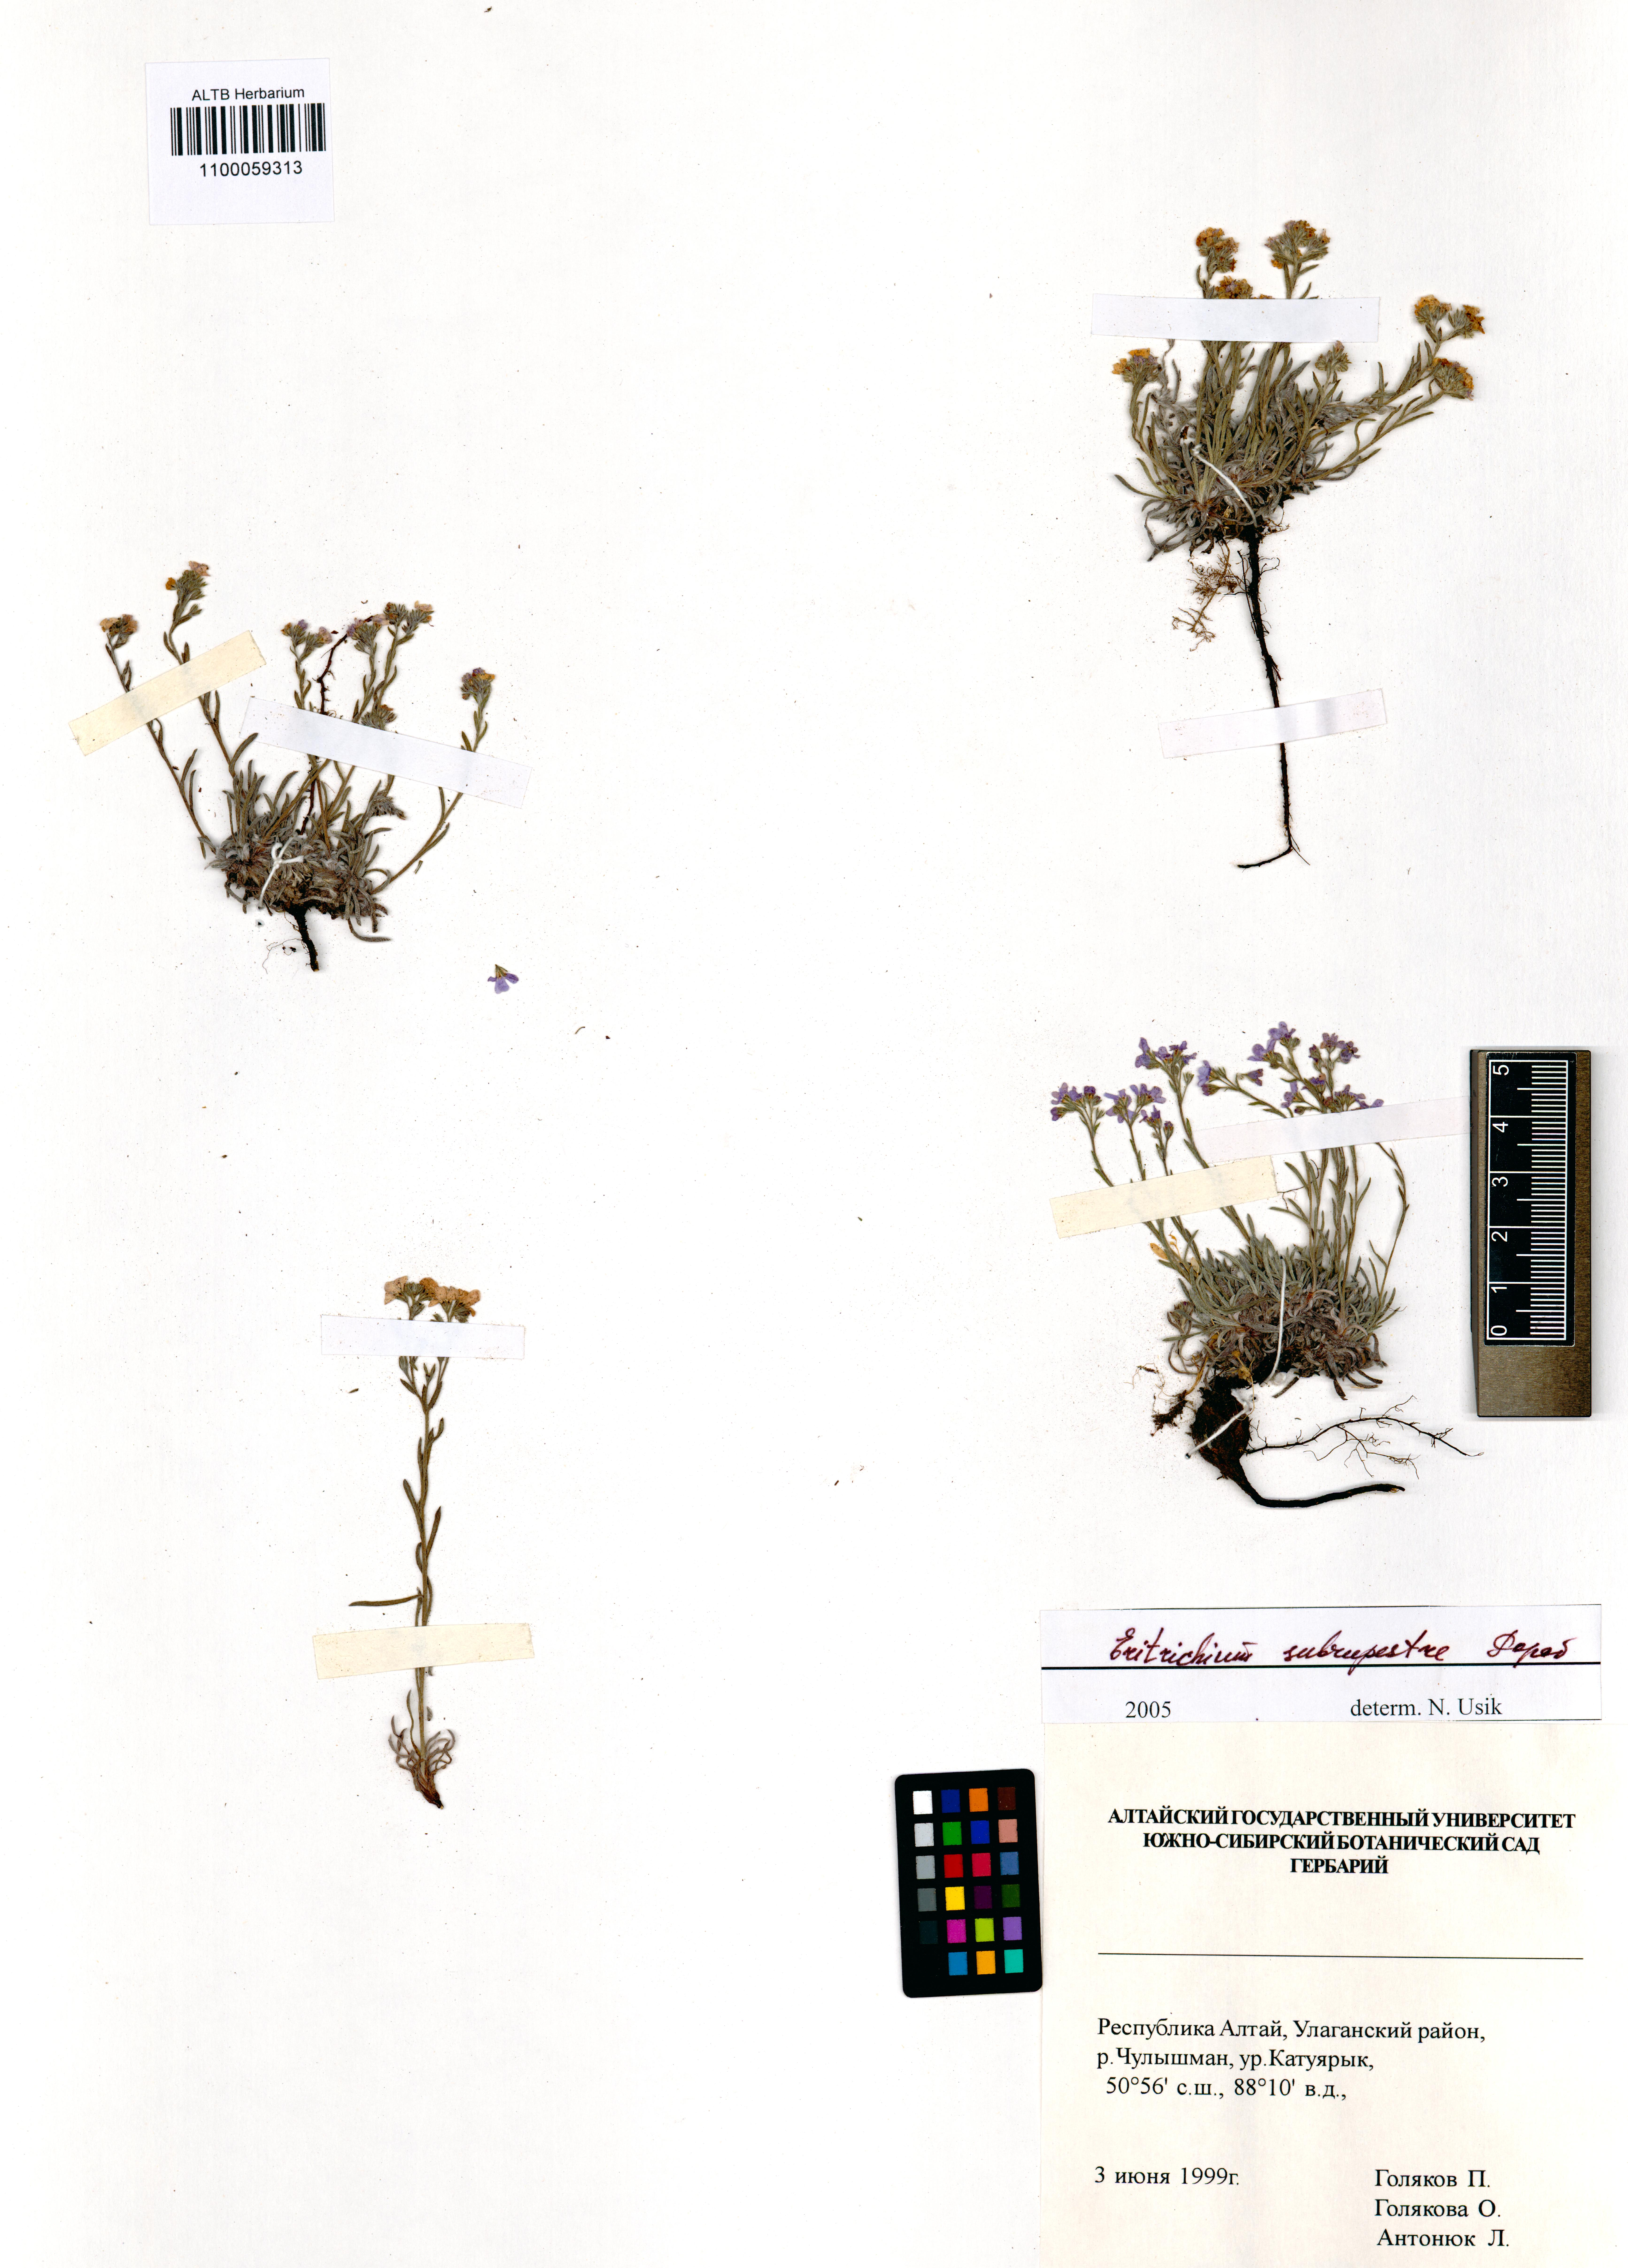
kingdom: Plantae
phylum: Tracheophyta
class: Magnoliopsida
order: Boraginales
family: Boraginaceae
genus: Eritrichium
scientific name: Eritrichium pauciflorum
